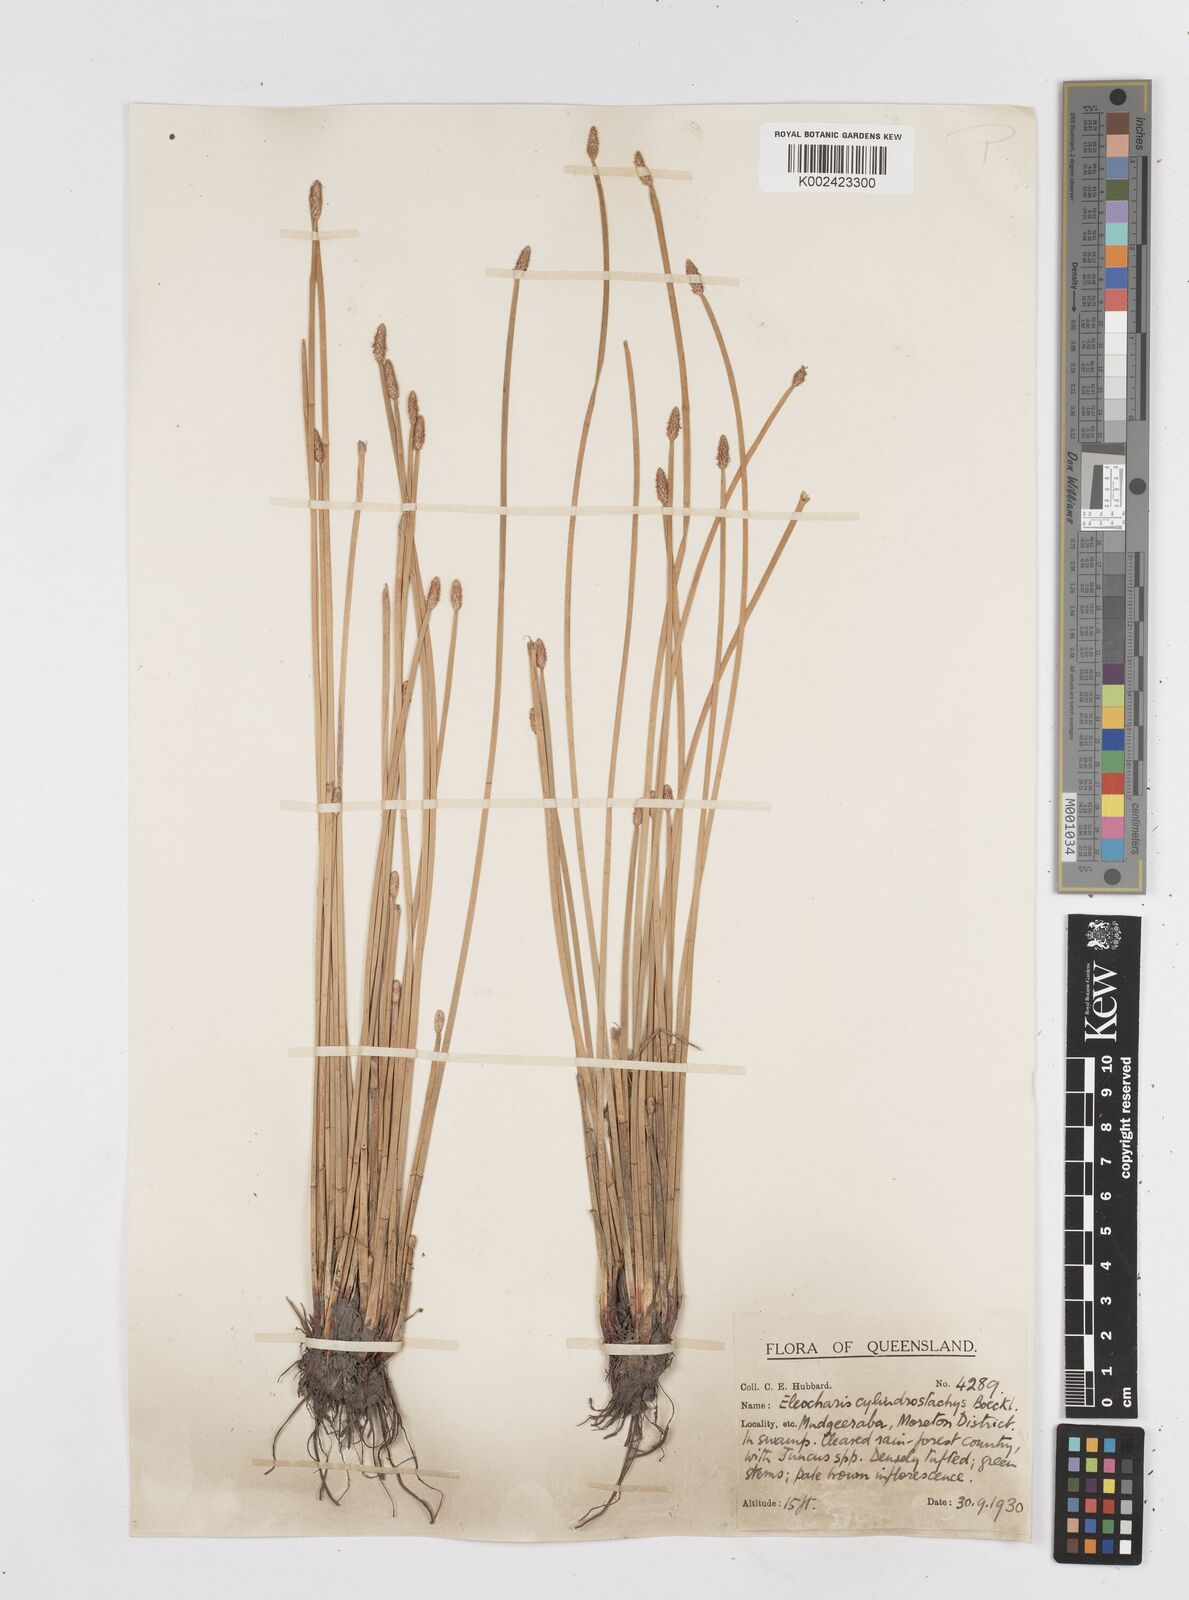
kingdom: Plantae
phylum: Tracheophyta
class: Liliopsida
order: Poales
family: Cyperaceae
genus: Eleocharis
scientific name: Eleocharis cylindrostachys
